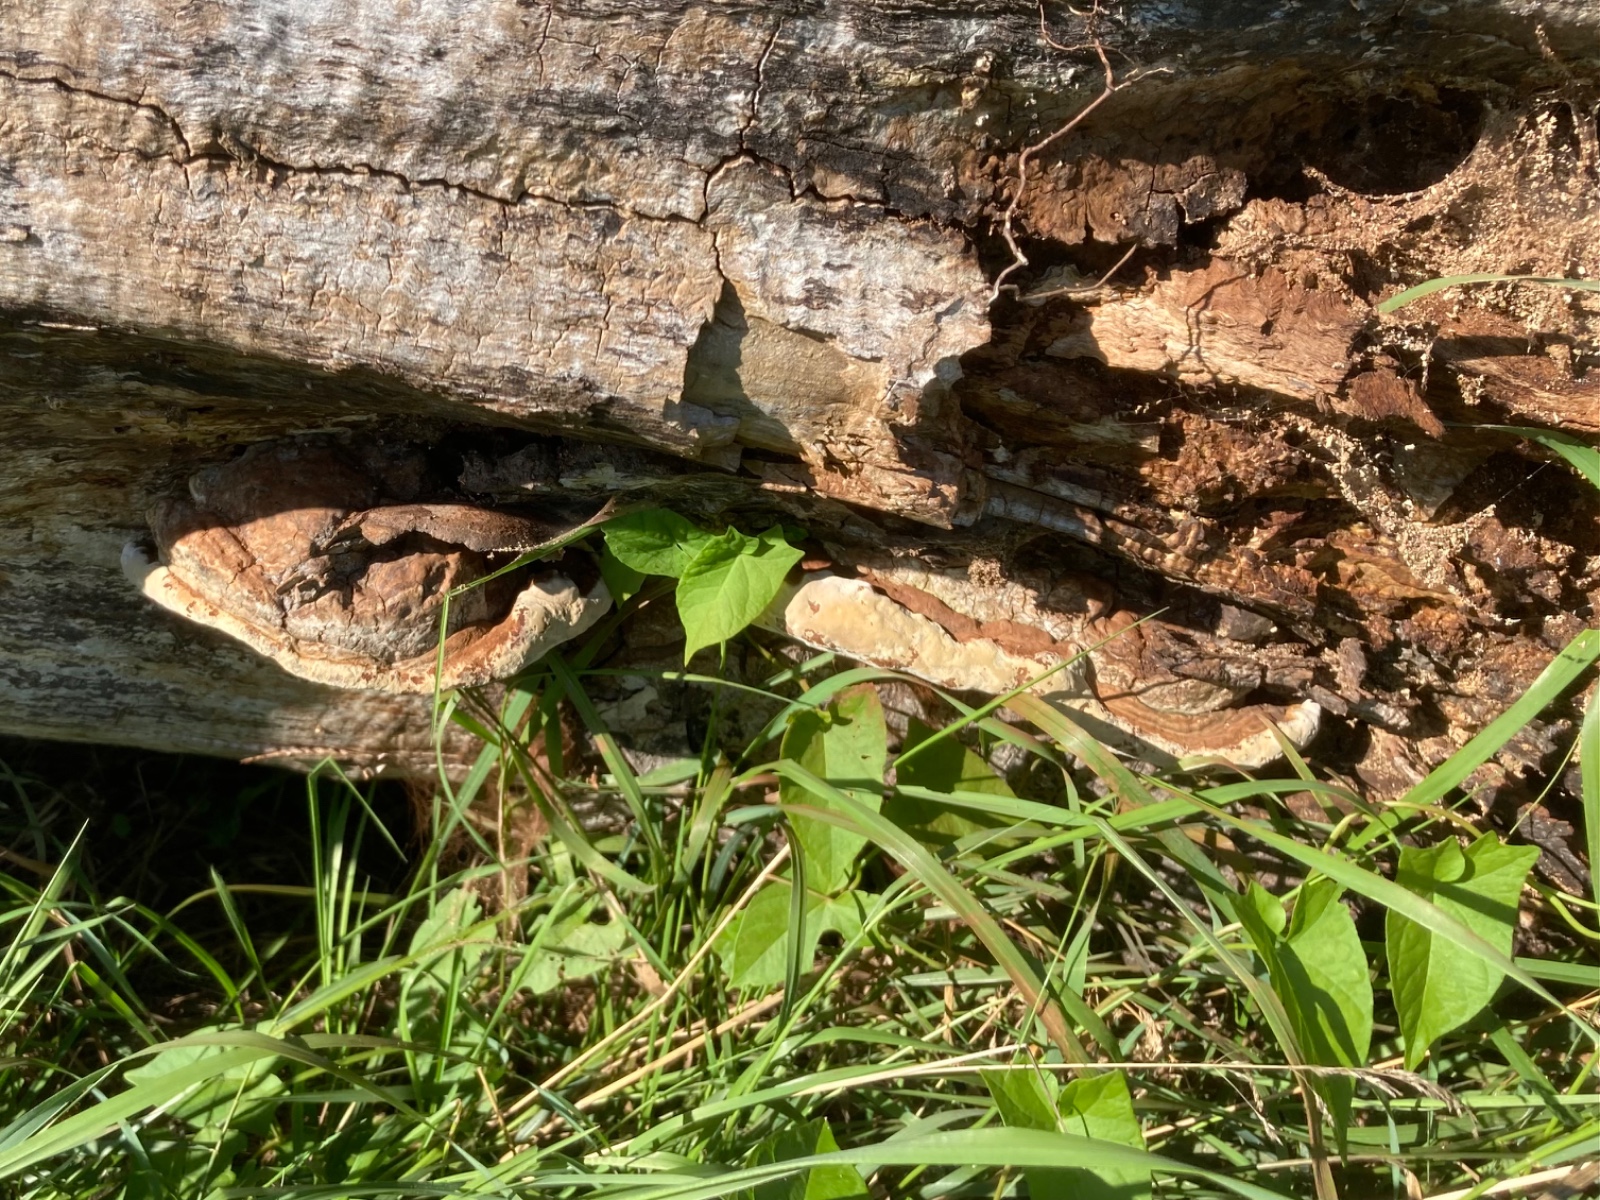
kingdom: Fungi
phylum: Basidiomycota
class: Agaricomycetes
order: Polyporales
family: Polyporaceae
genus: Ganoderma
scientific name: Ganoderma adspersum
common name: grov lakporesvamp
